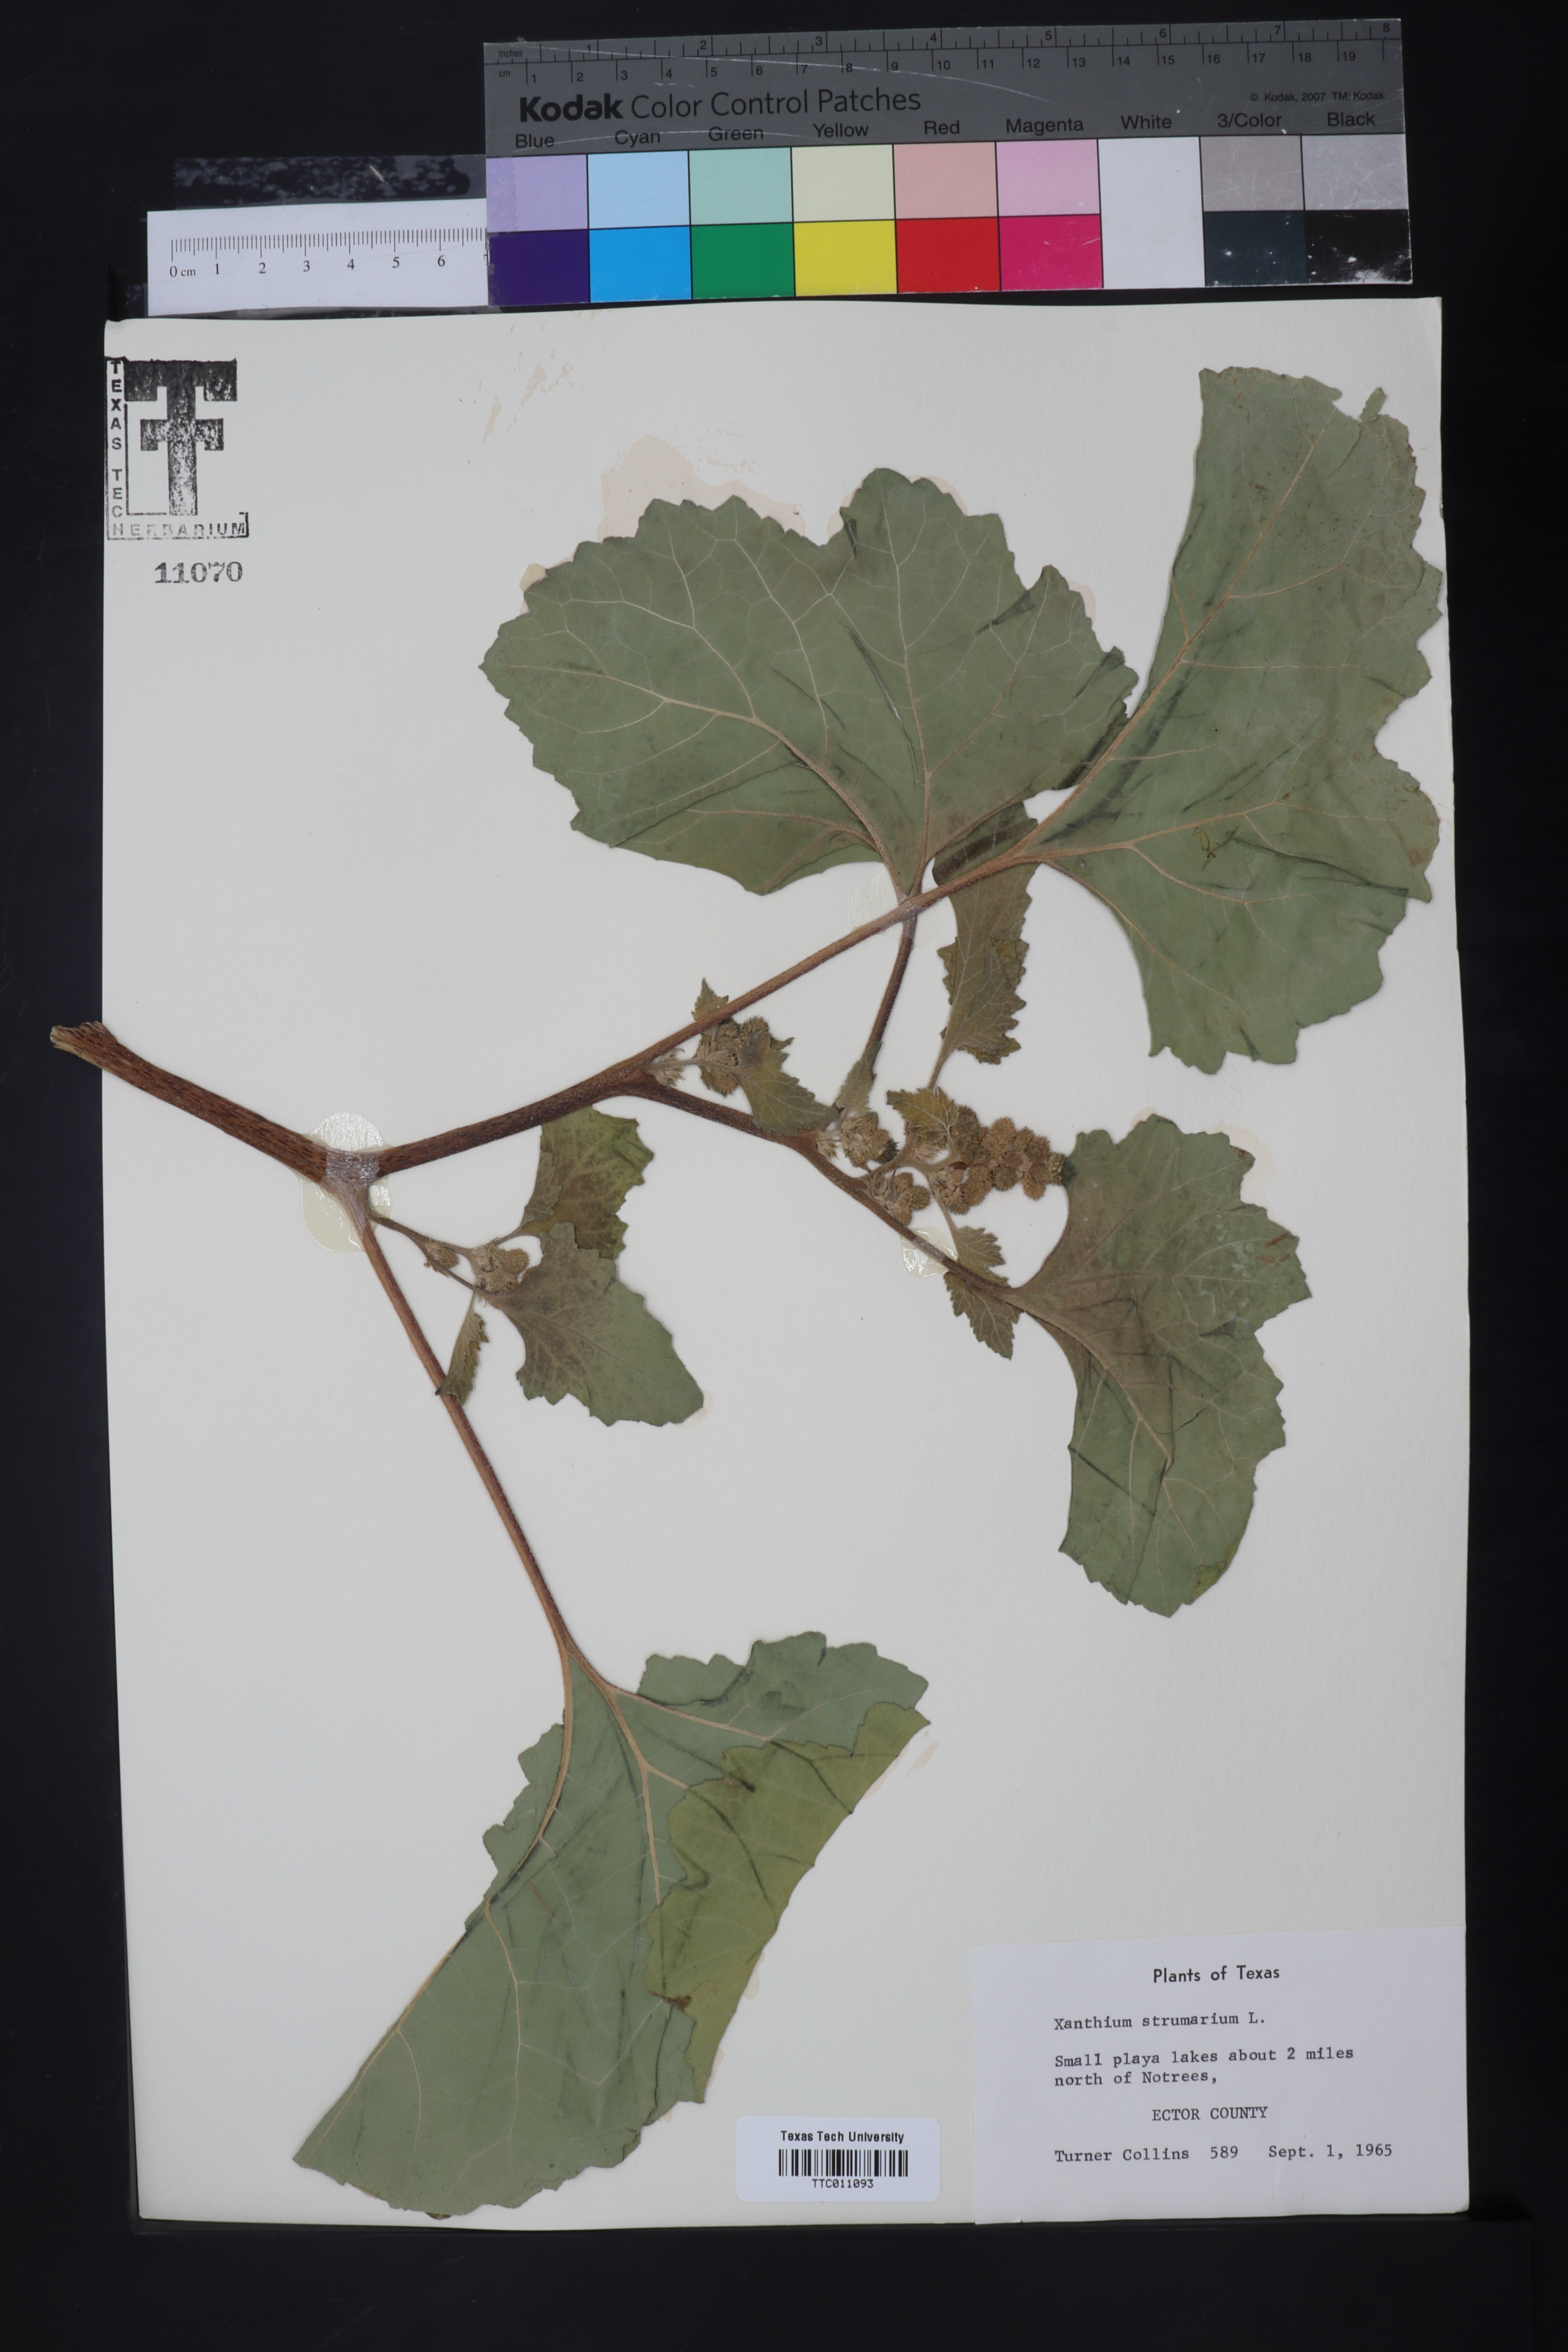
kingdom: Plantae
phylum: Tracheophyta
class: Magnoliopsida
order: Asterales
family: Asteraceae
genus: Xanthium
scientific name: Xanthium strumarium
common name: Rough cocklebur
